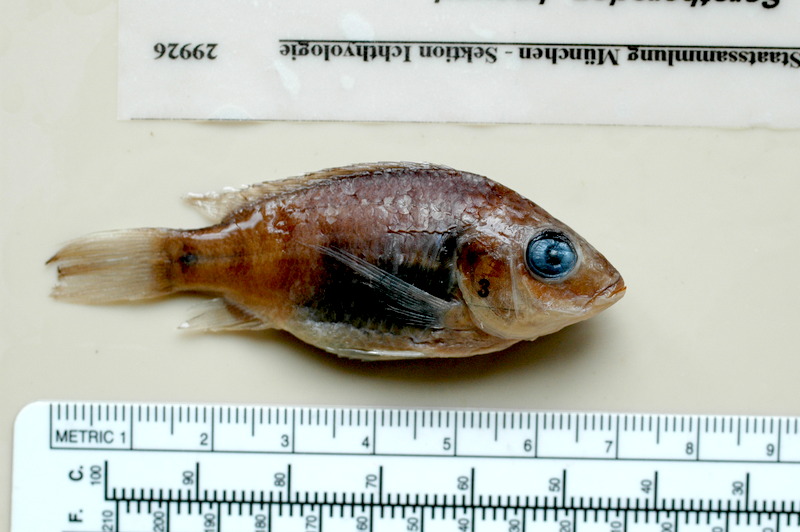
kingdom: Animalia
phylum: Chordata
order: Perciformes
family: Cichlidae
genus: Sarotherodon
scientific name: Sarotherodon knauerae
